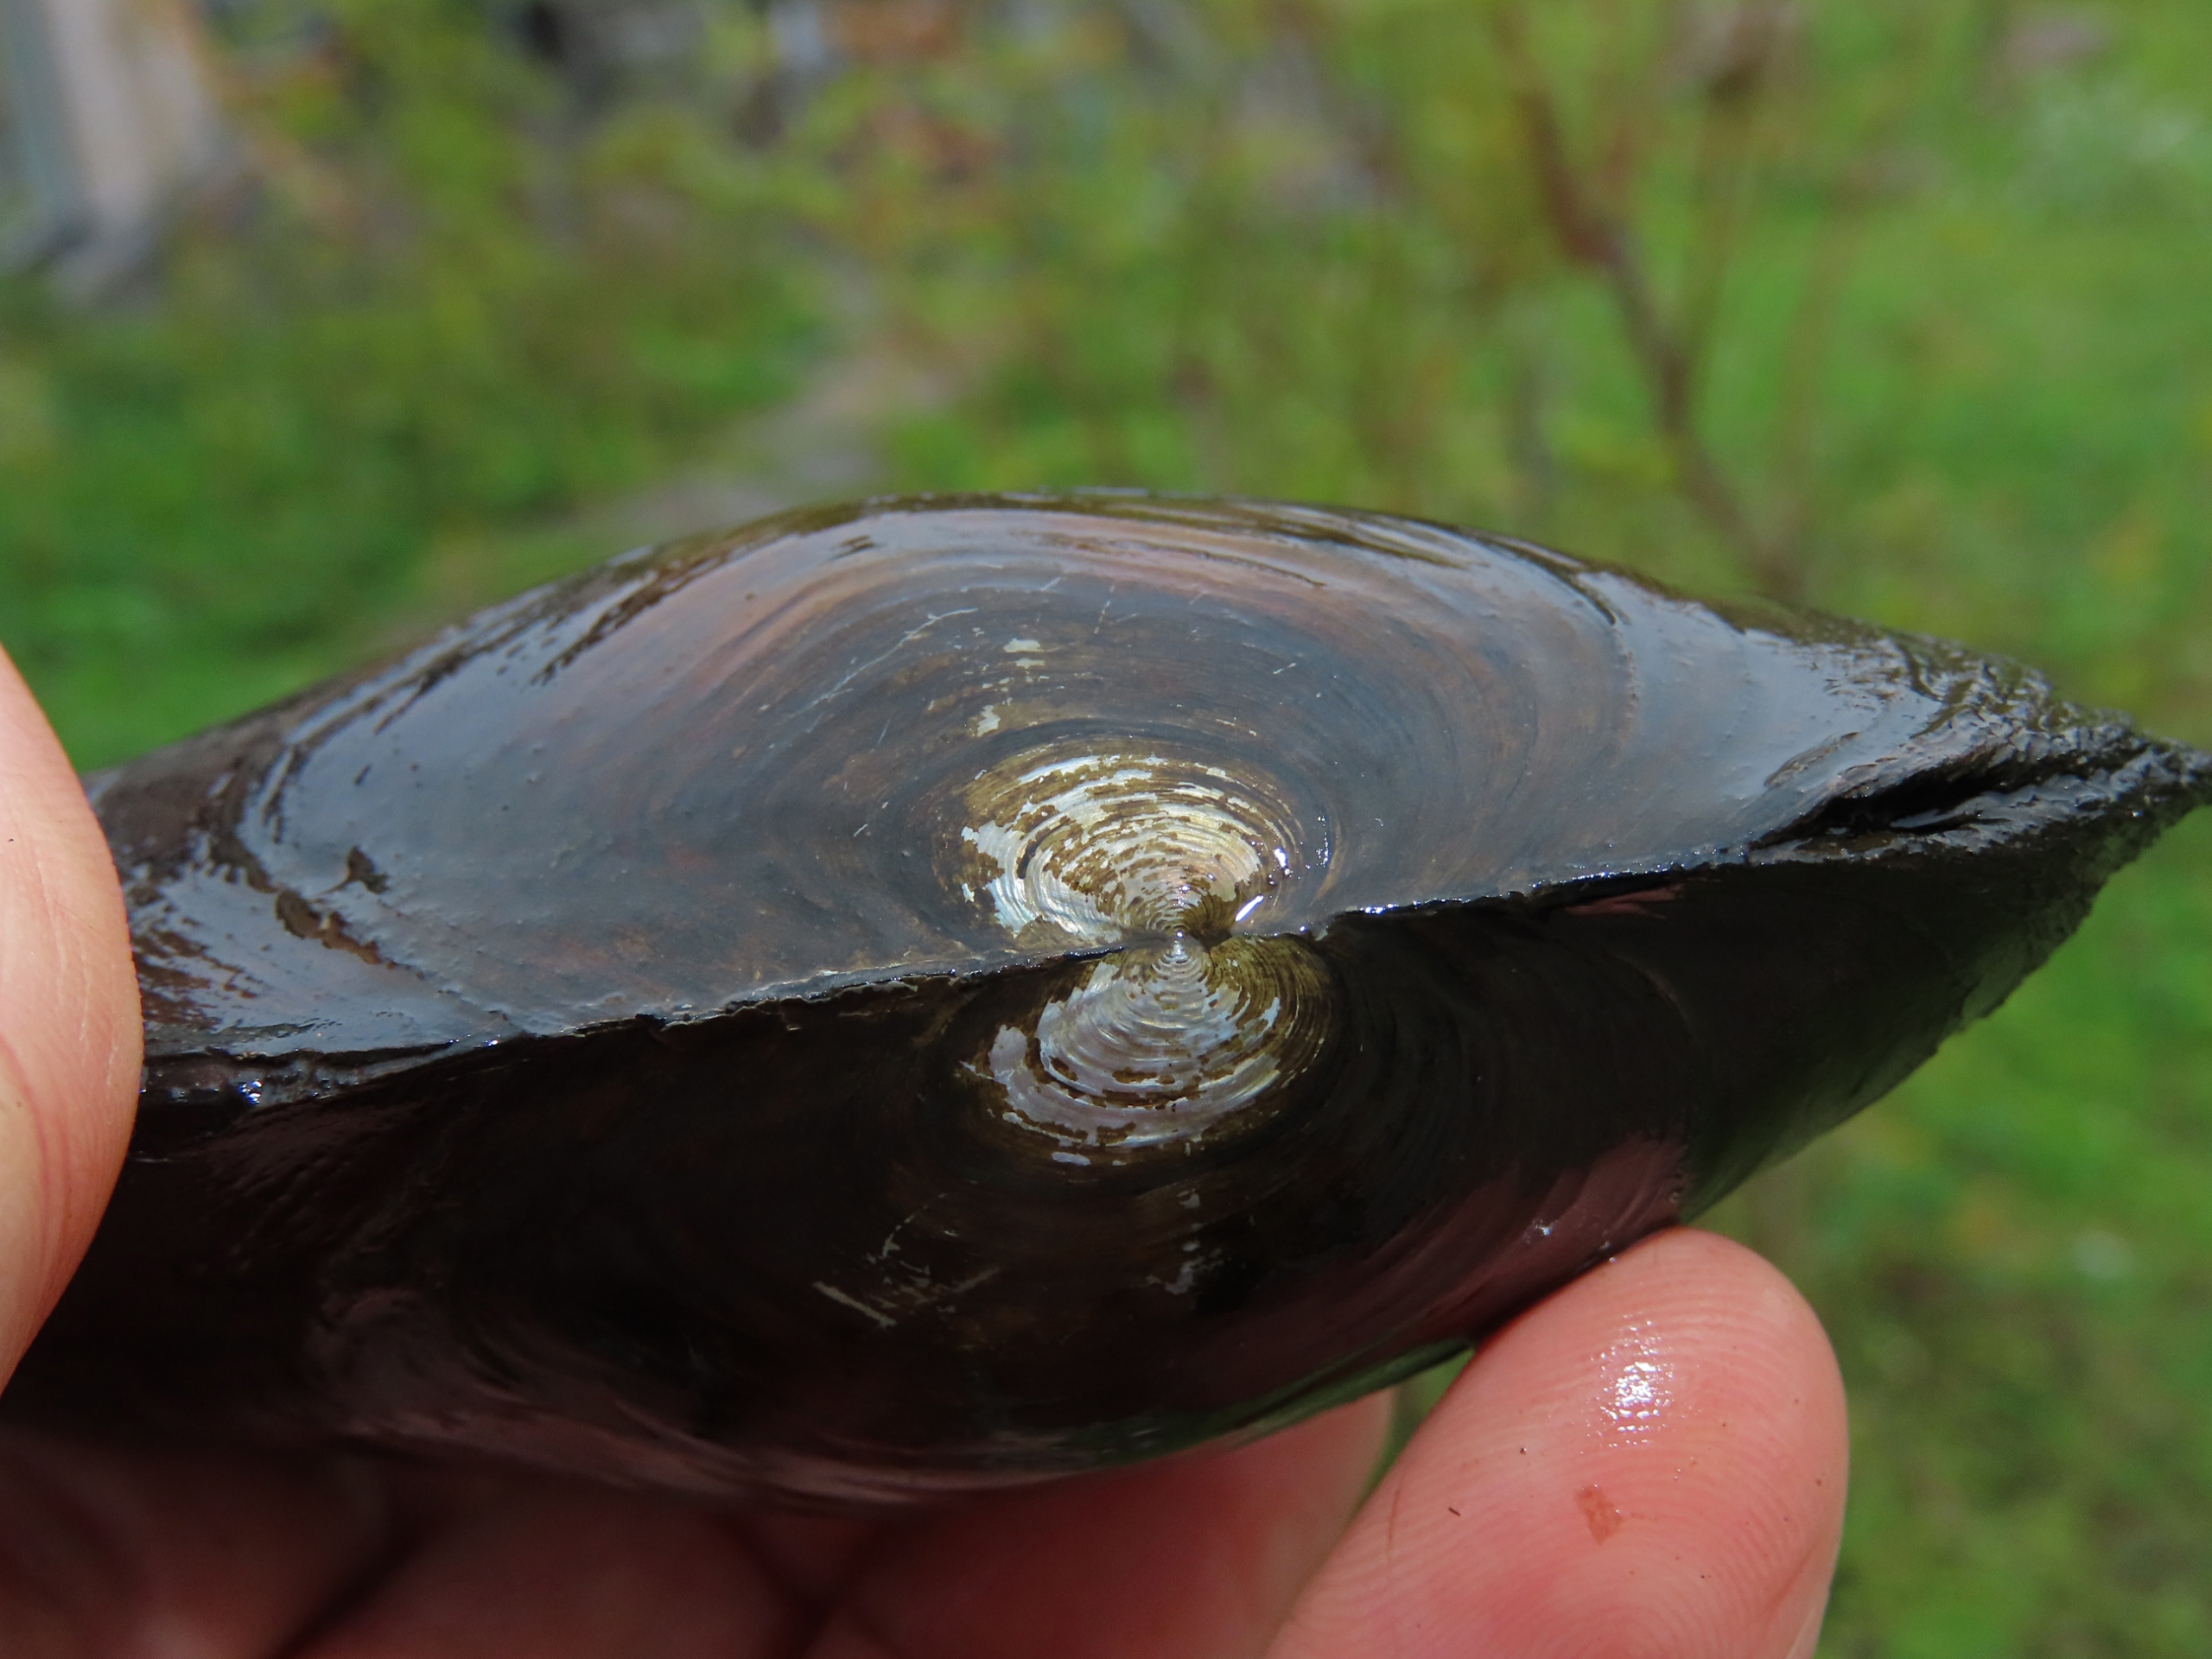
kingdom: Animalia
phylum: Mollusca
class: Bivalvia
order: Unionida
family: Unionidae
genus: Anodonta
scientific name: Anodonta cygnea
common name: Stor dammusling
